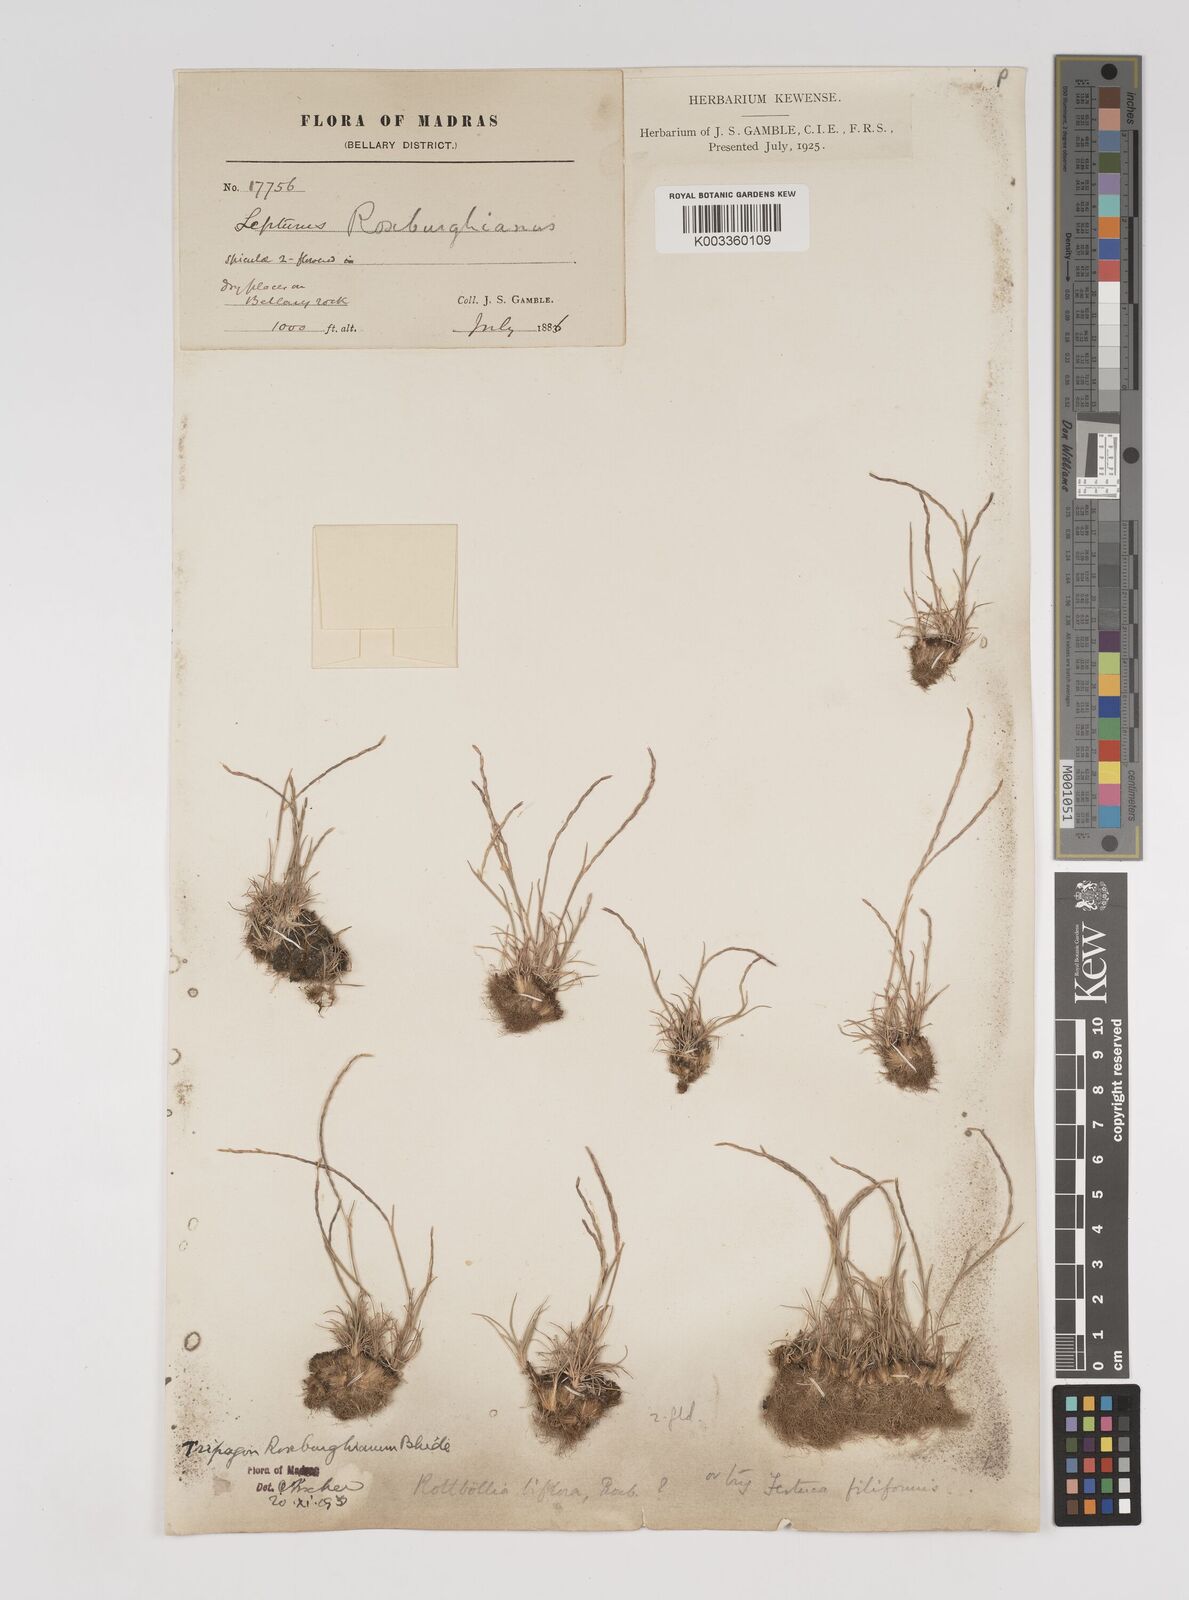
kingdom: Plantae
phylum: Tracheophyta
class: Liliopsida
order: Poales
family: Poaceae
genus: Oropetium
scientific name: Oropetium roxburghianum
